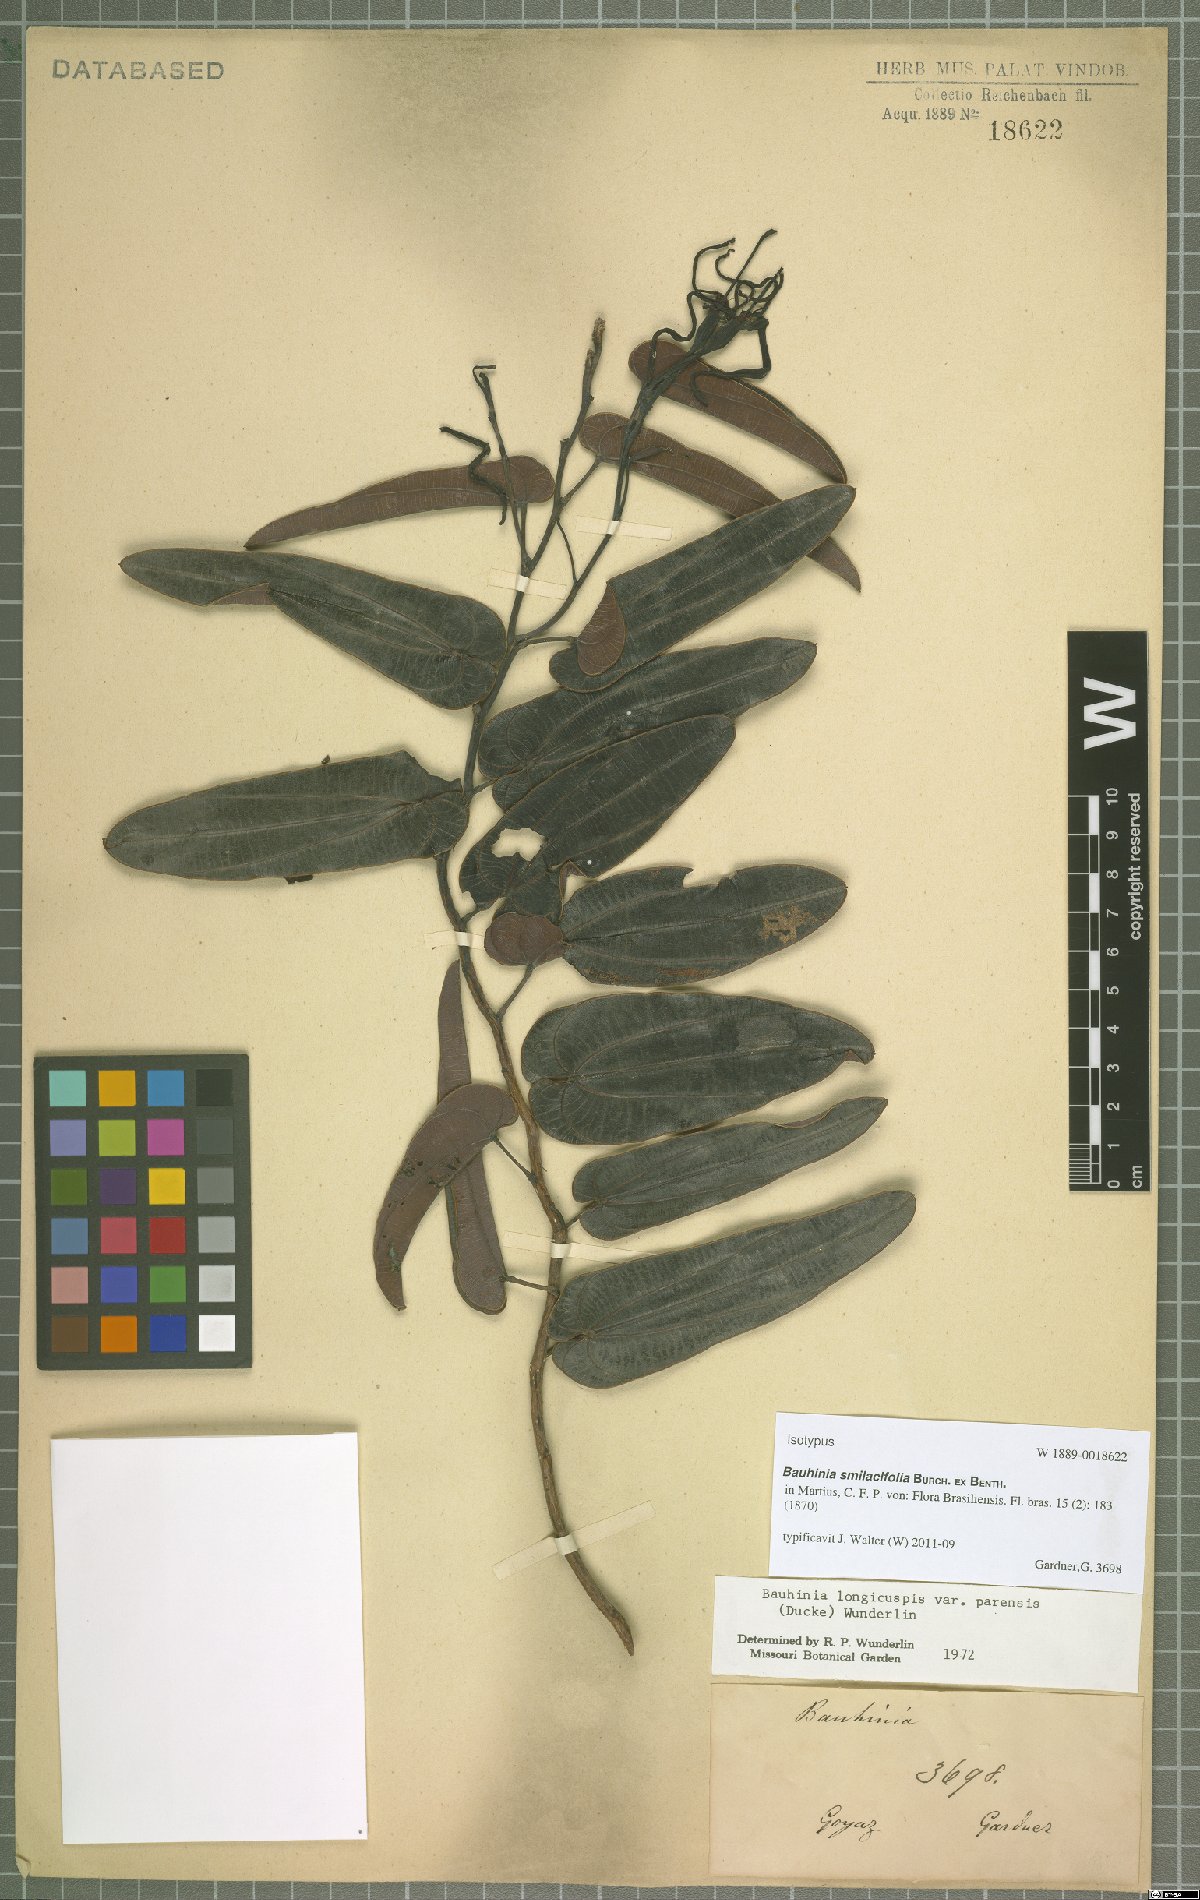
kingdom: Plantae
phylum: Tracheophyta
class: Magnoliopsida
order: Fabales
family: Fabaceae
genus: Bauhinia
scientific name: Bauhinia smilacifolia
